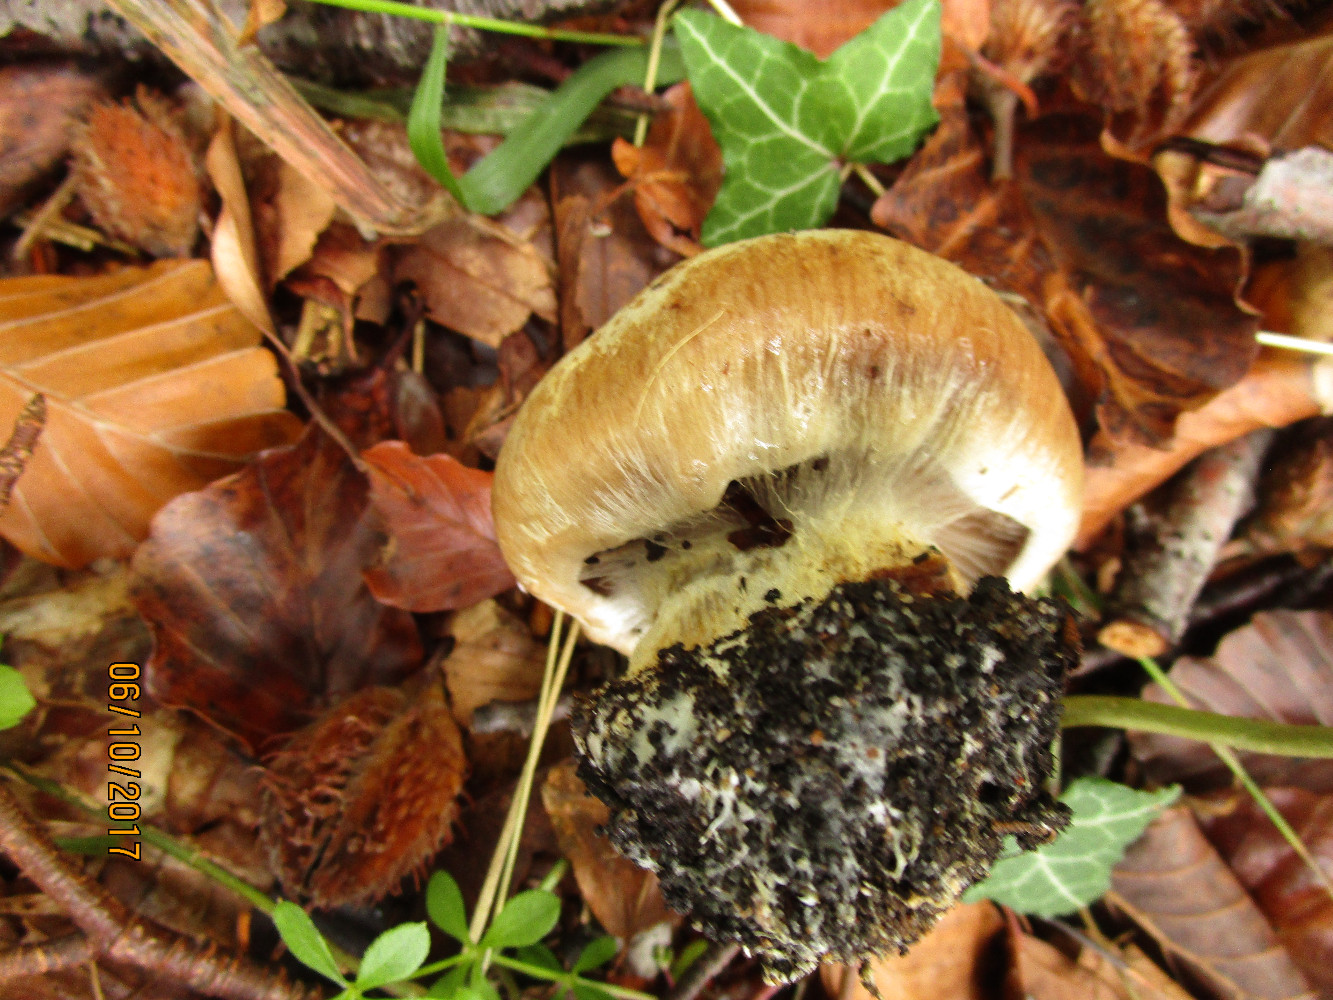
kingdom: Fungi
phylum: Basidiomycota
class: Agaricomycetes
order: Agaricales
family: Cortinariaceae
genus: Cortinarius
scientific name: Cortinarius foetens
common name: stribet slørhat
